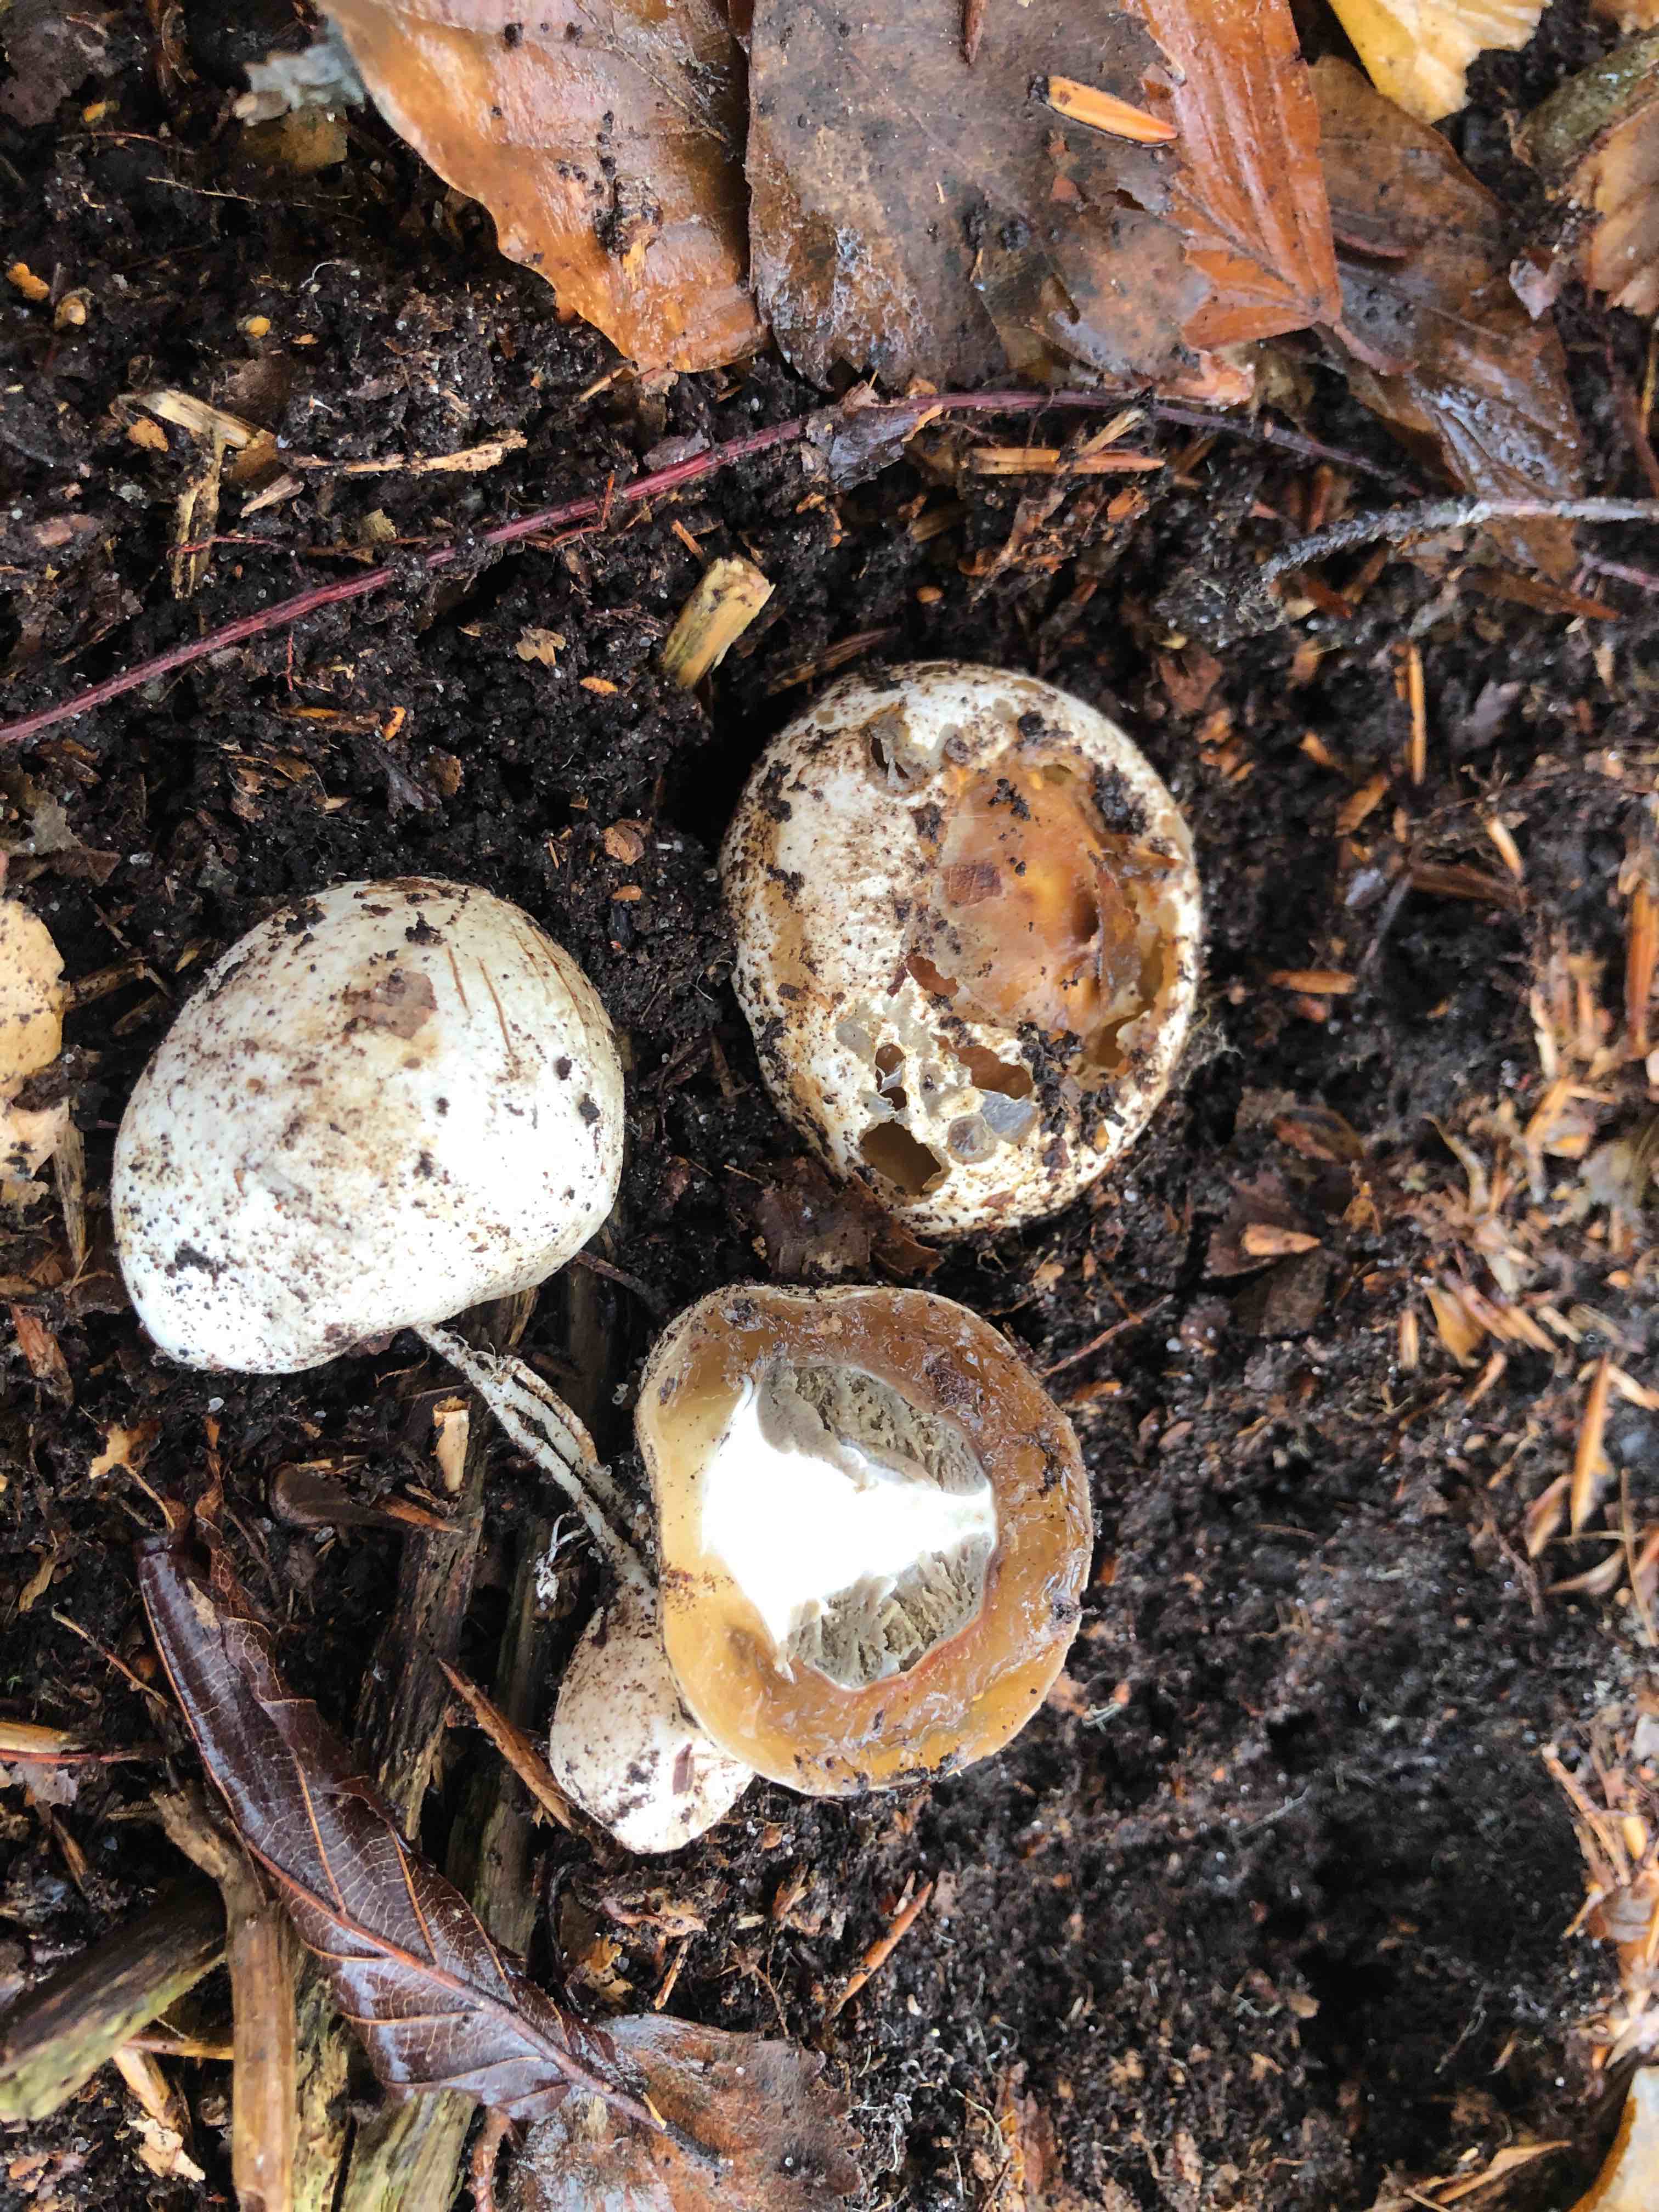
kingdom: Fungi
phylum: Basidiomycota
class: Agaricomycetes
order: Phallales
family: Phallaceae
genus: Phallus
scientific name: Phallus impudicus
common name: almindelig stinksvamp
